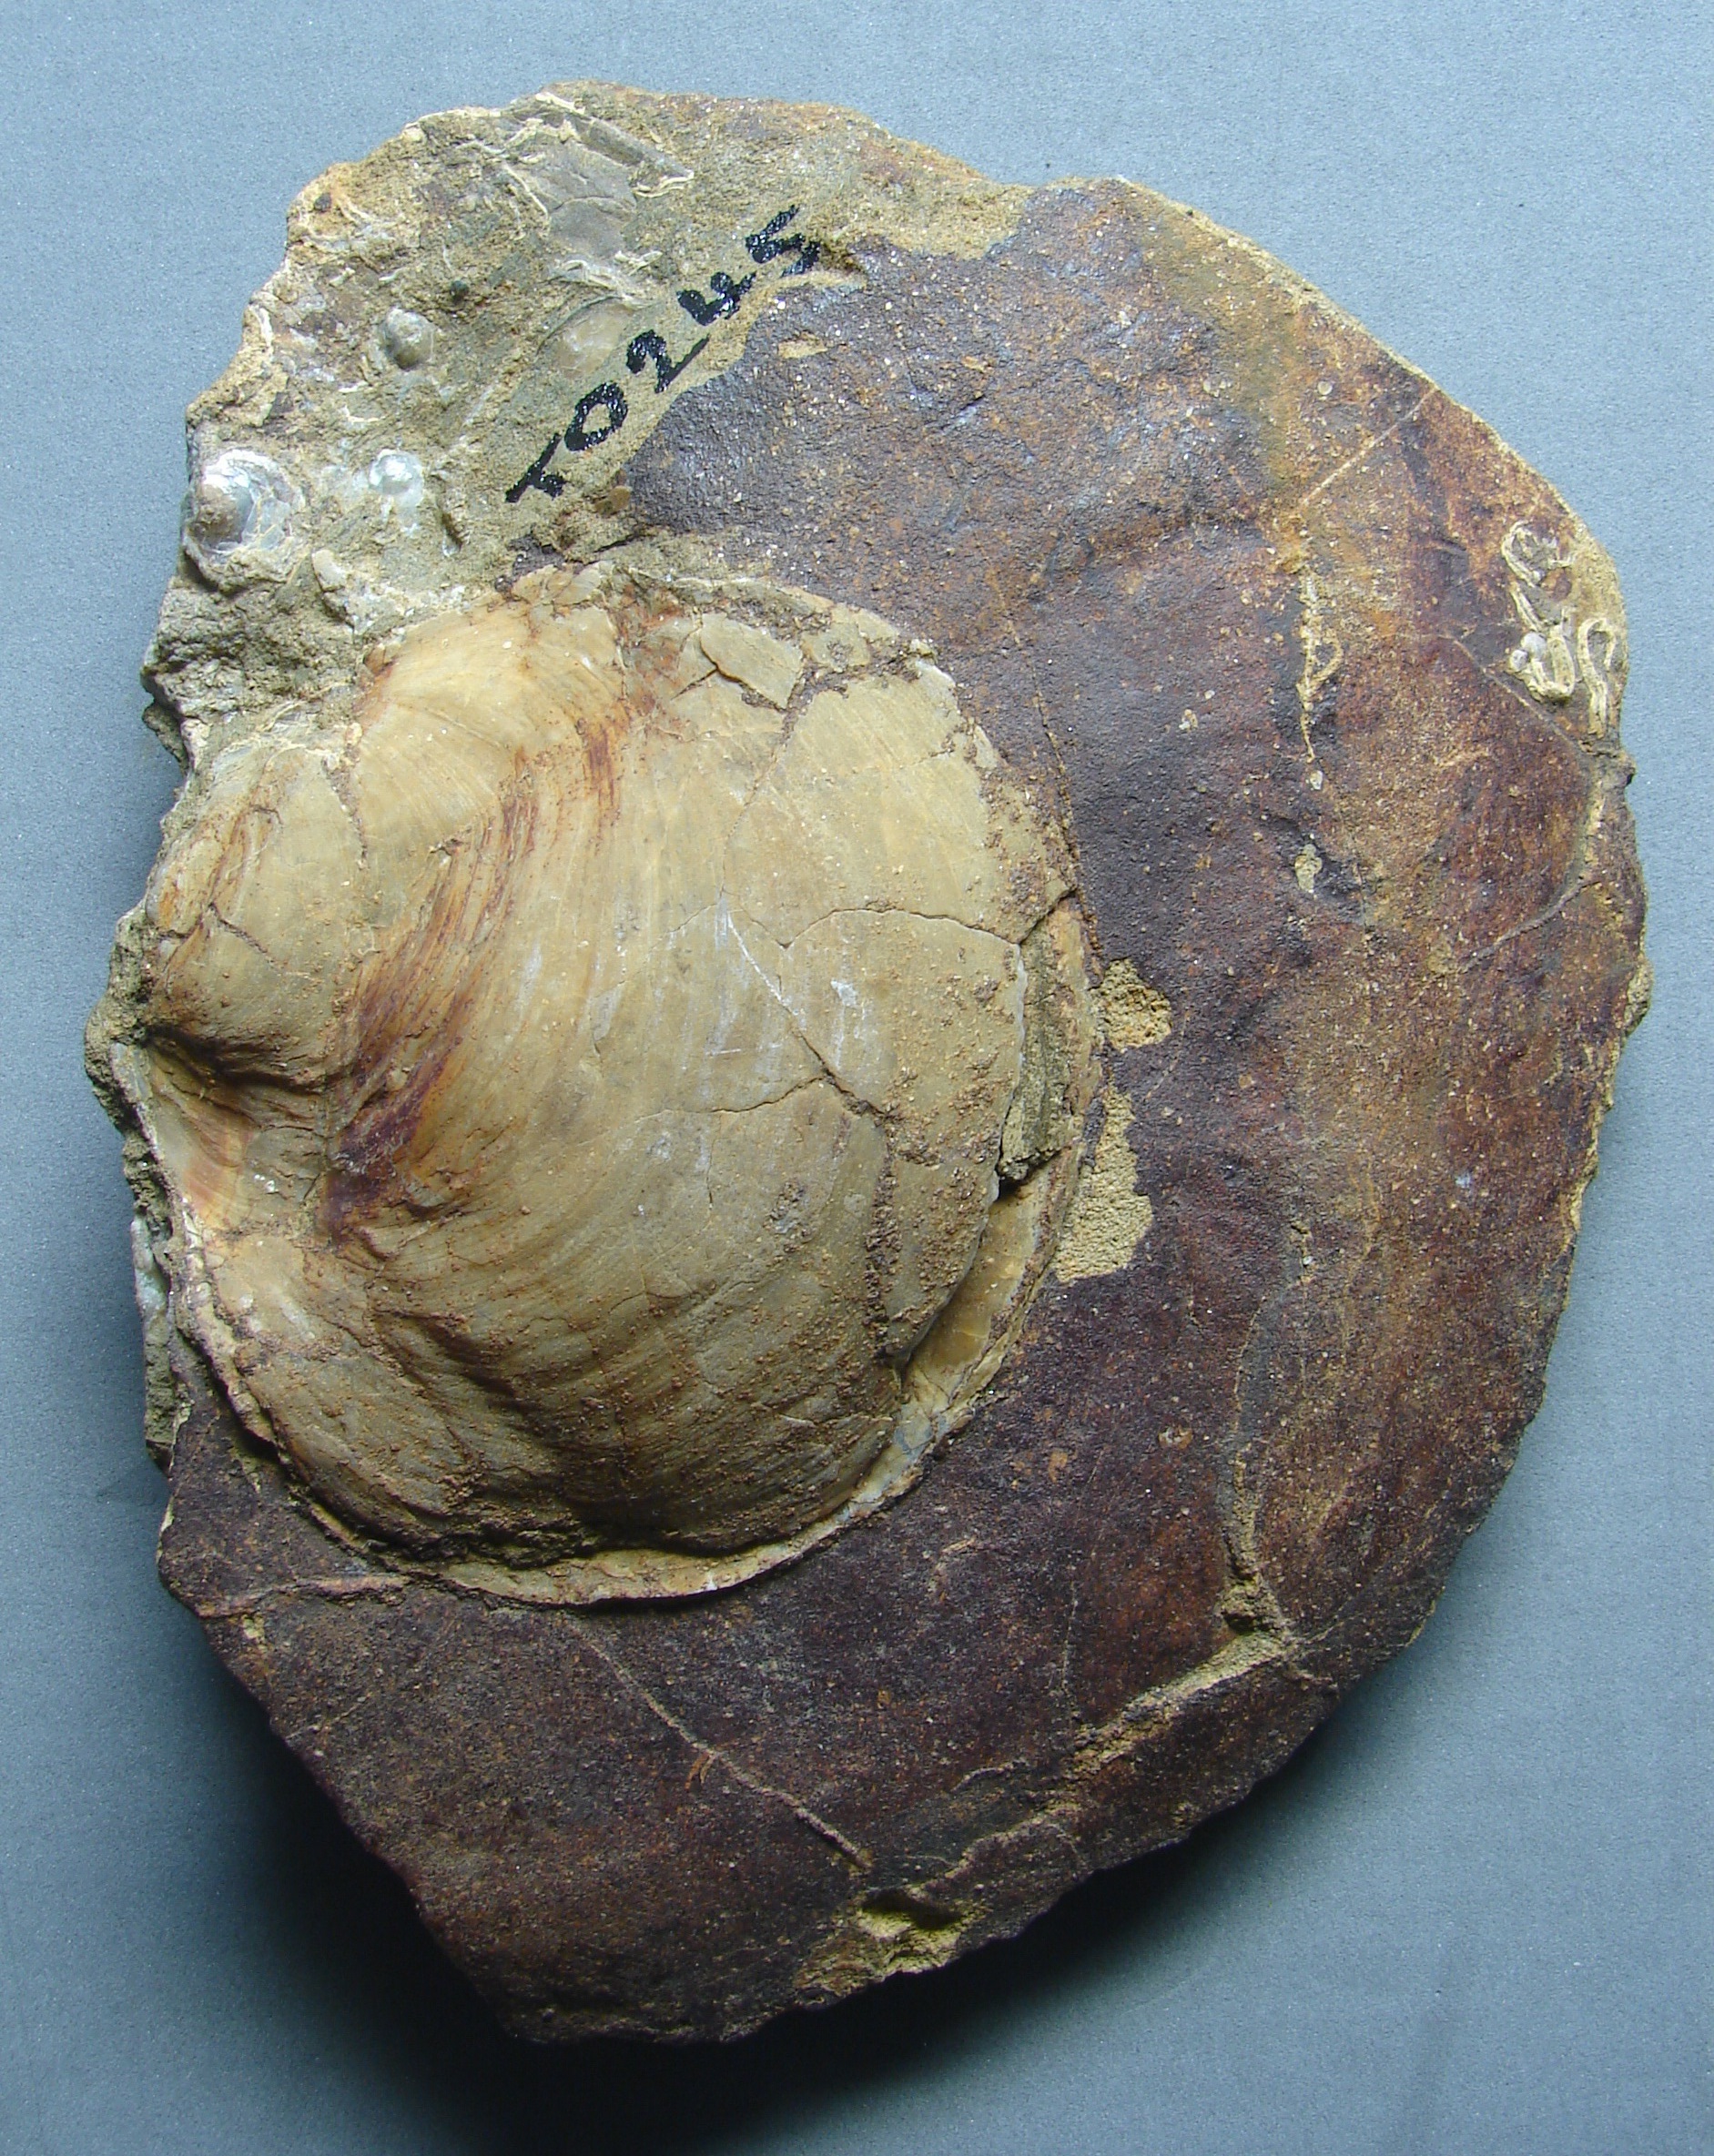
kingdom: Protozoa
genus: Huddlestonia
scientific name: Huddlestonia
